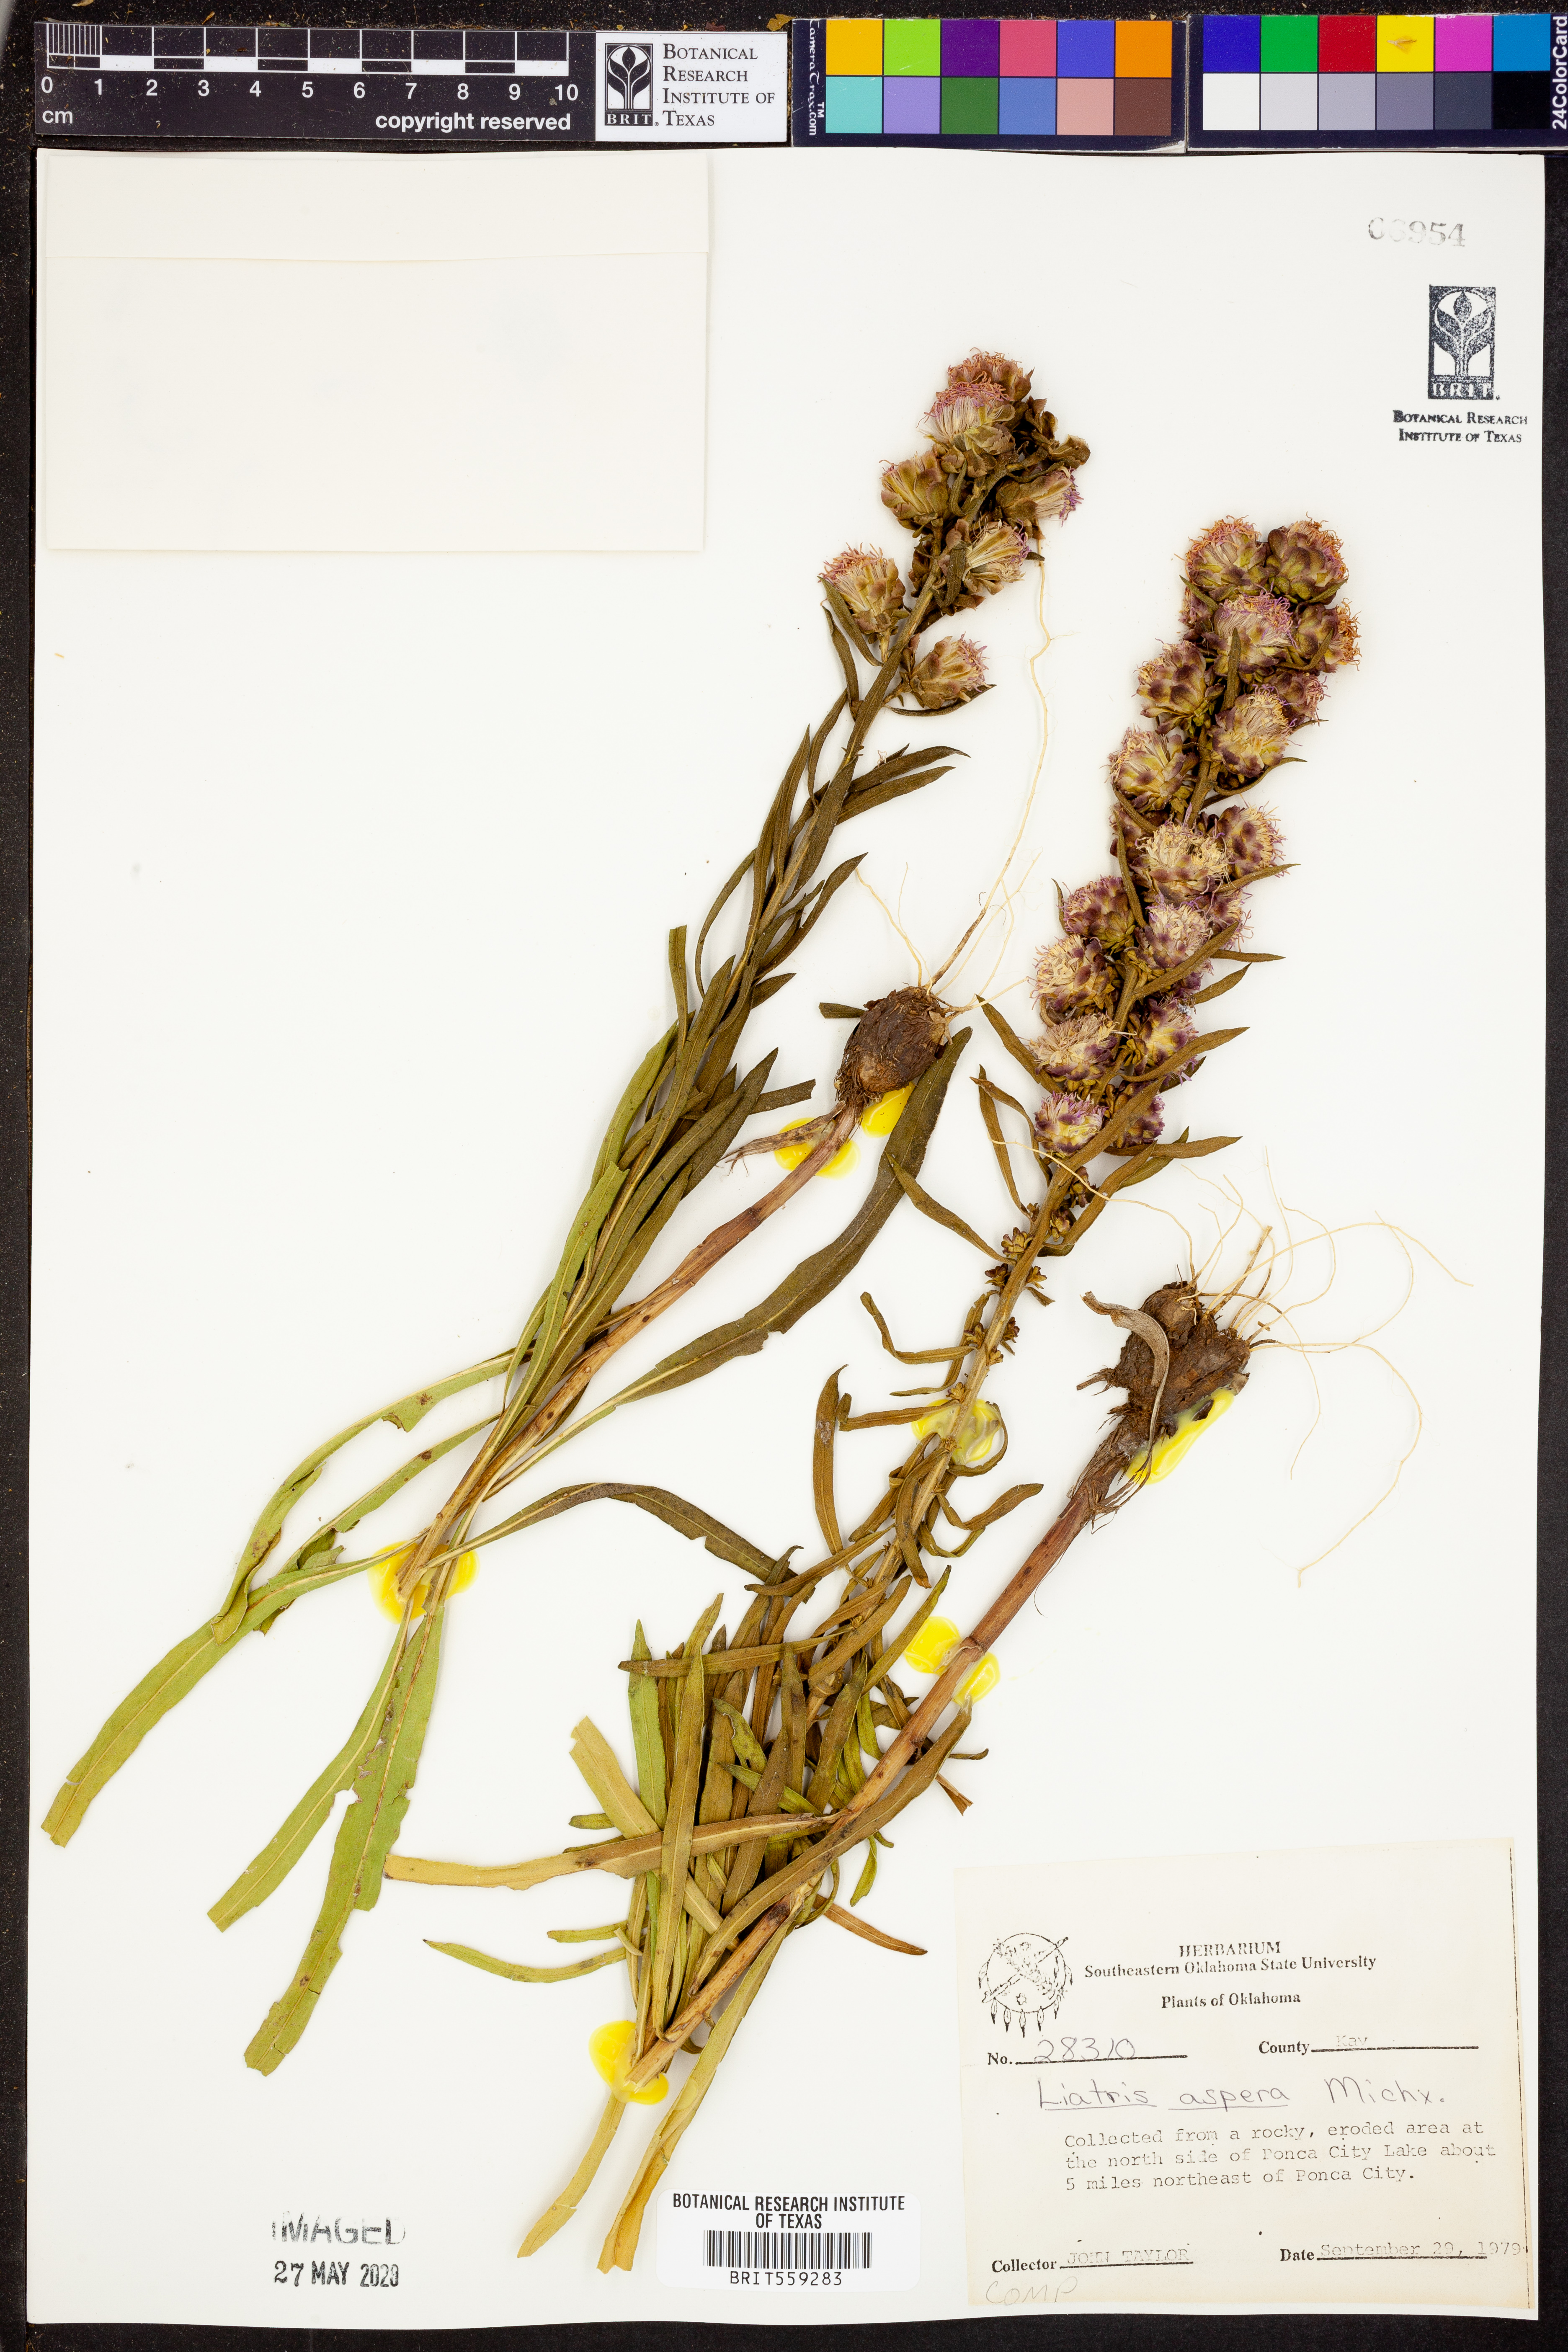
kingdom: Plantae
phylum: Tracheophyta
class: Magnoliopsida
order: Asterales
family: Asteraceae
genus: Liatris
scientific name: Liatris aspera
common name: Lacerate blazing-star
